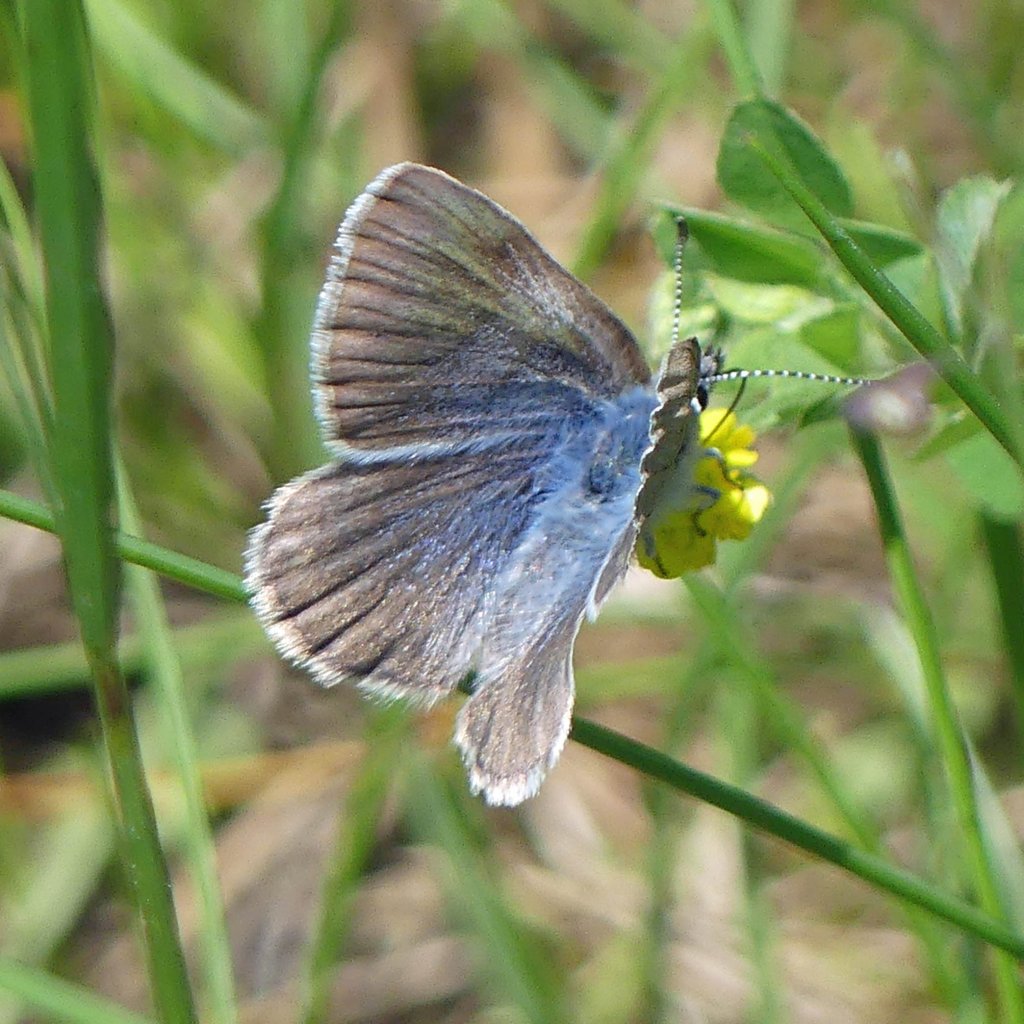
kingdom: Animalia
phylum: Arthropoda
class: Insecta
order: Lepidoptera
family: Lycaenidae
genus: Glaucopsyche
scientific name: Glaucopsyche lygdamus
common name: Silvery Blue
